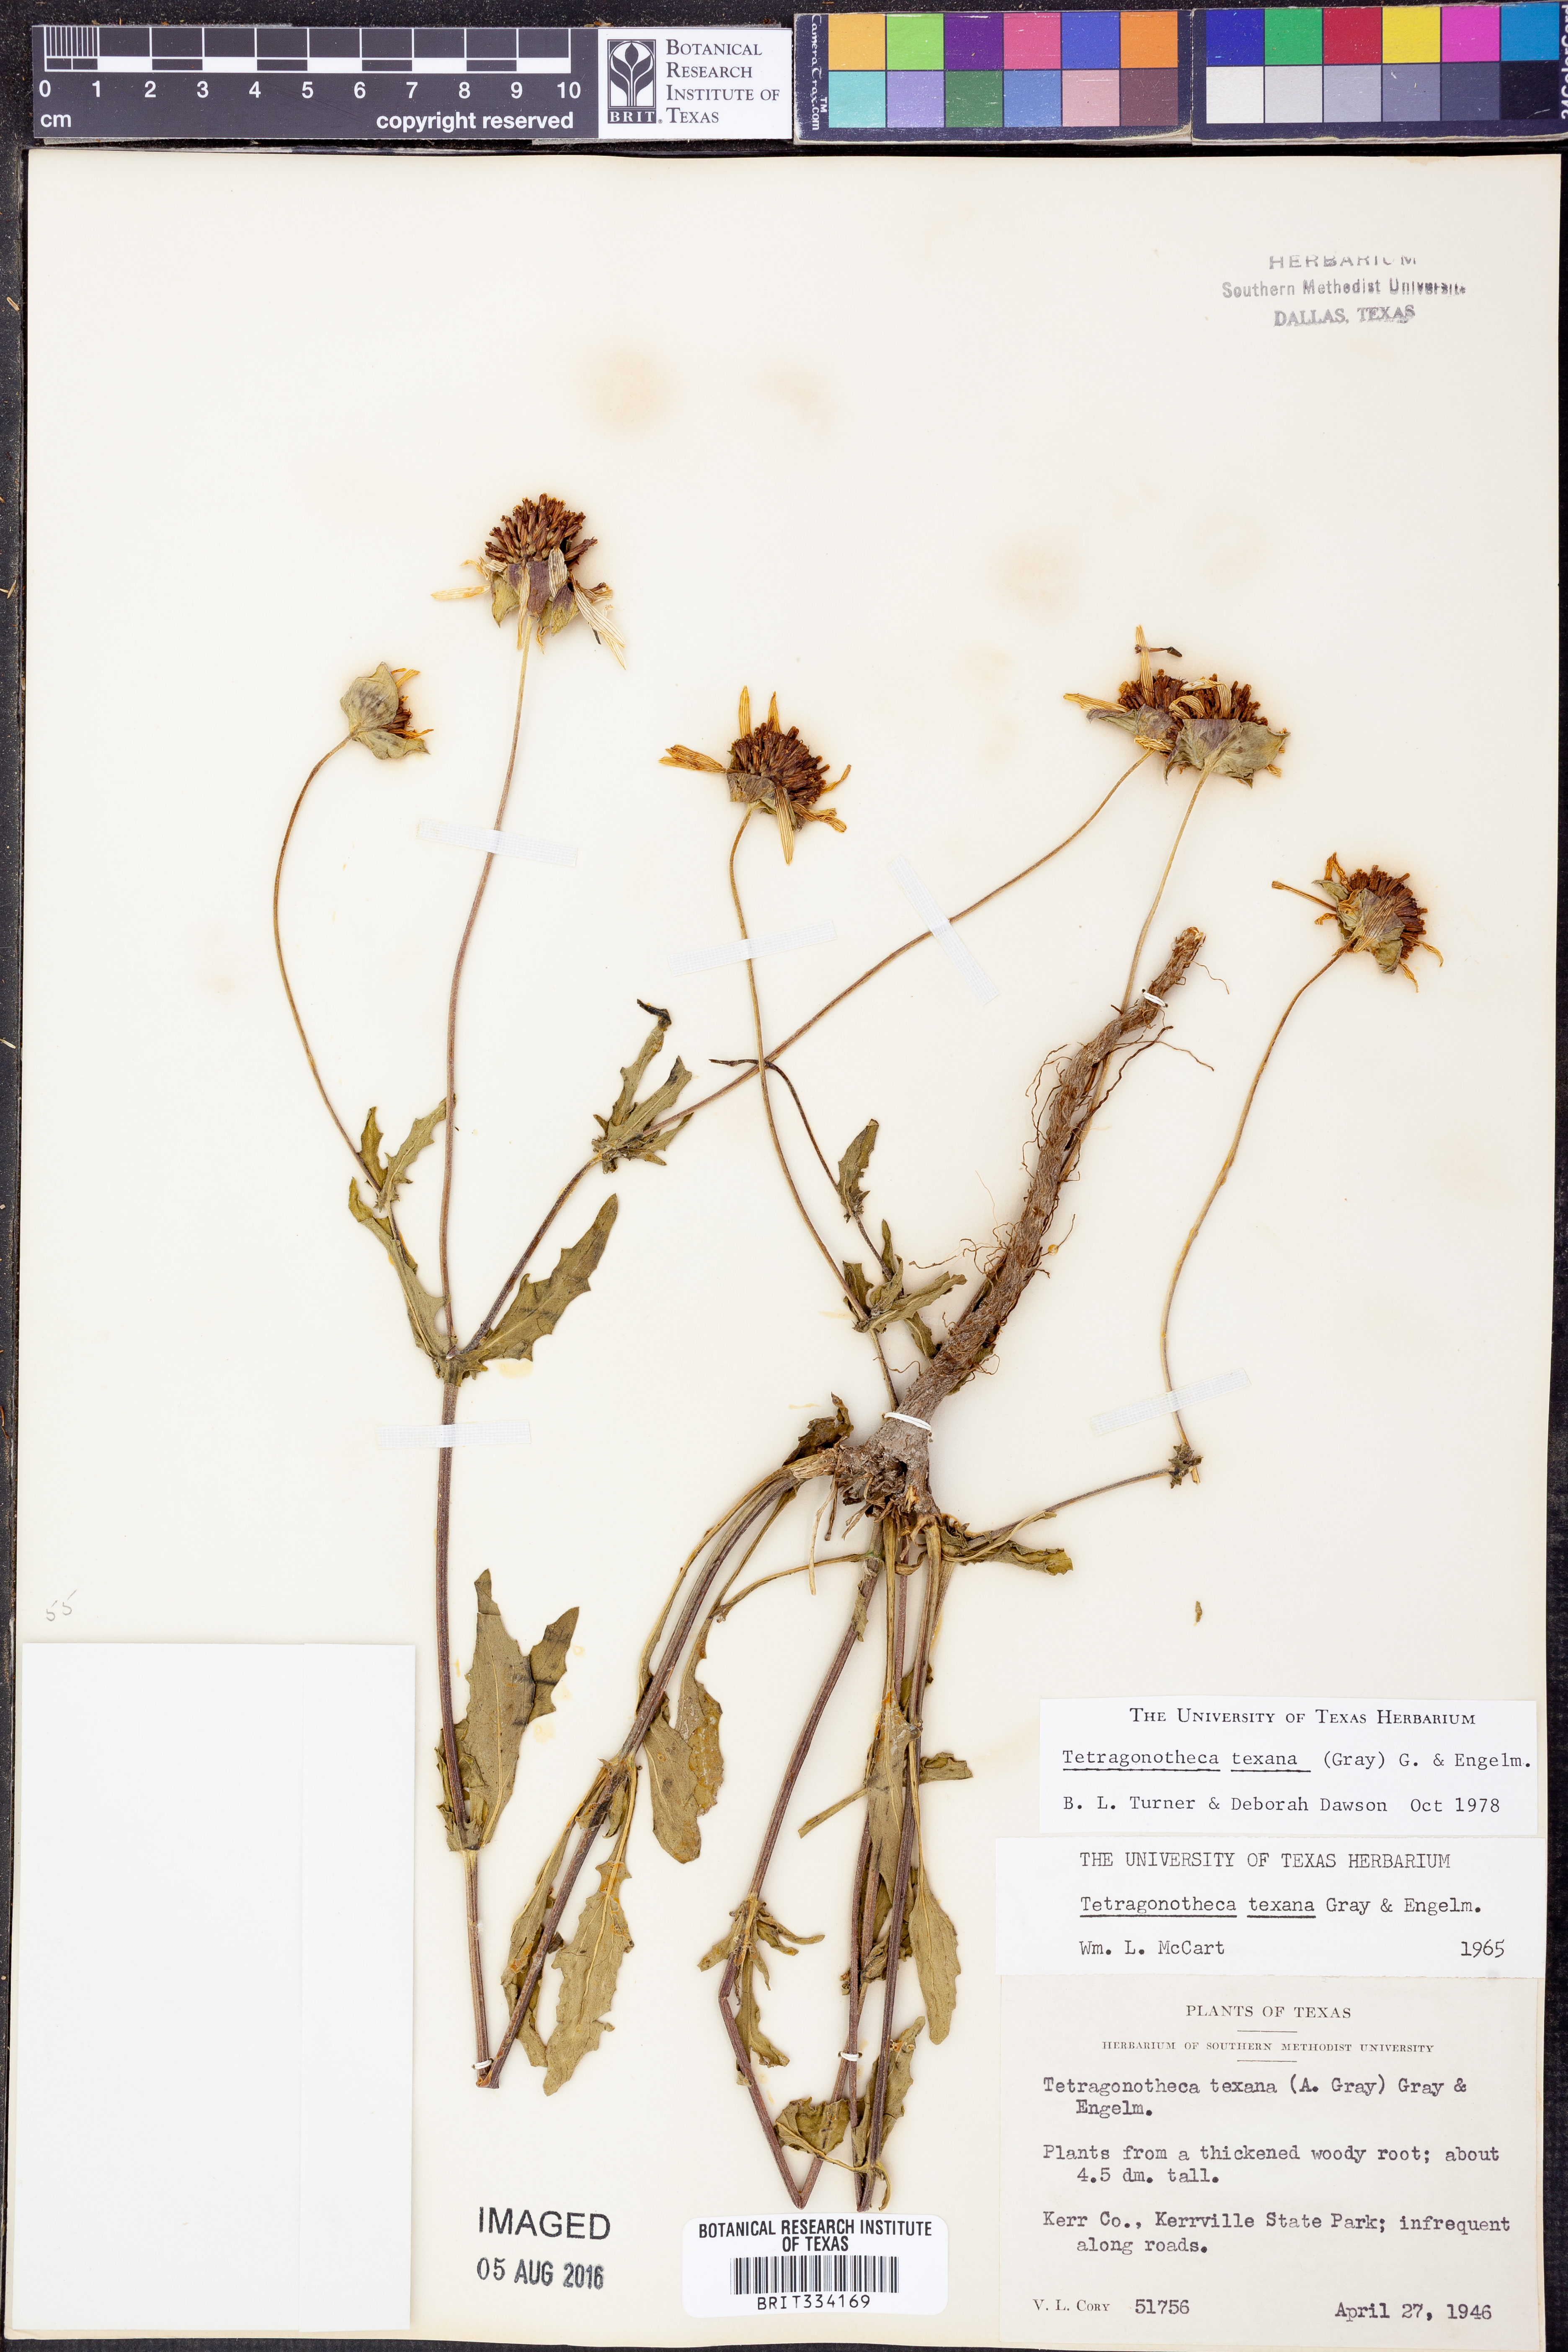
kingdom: Plantae
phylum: Tracheophyta
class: Magnoliopsida
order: Asterales
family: Asteraceae
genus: Tetragonotheca
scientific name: Tetragonotheca texana
